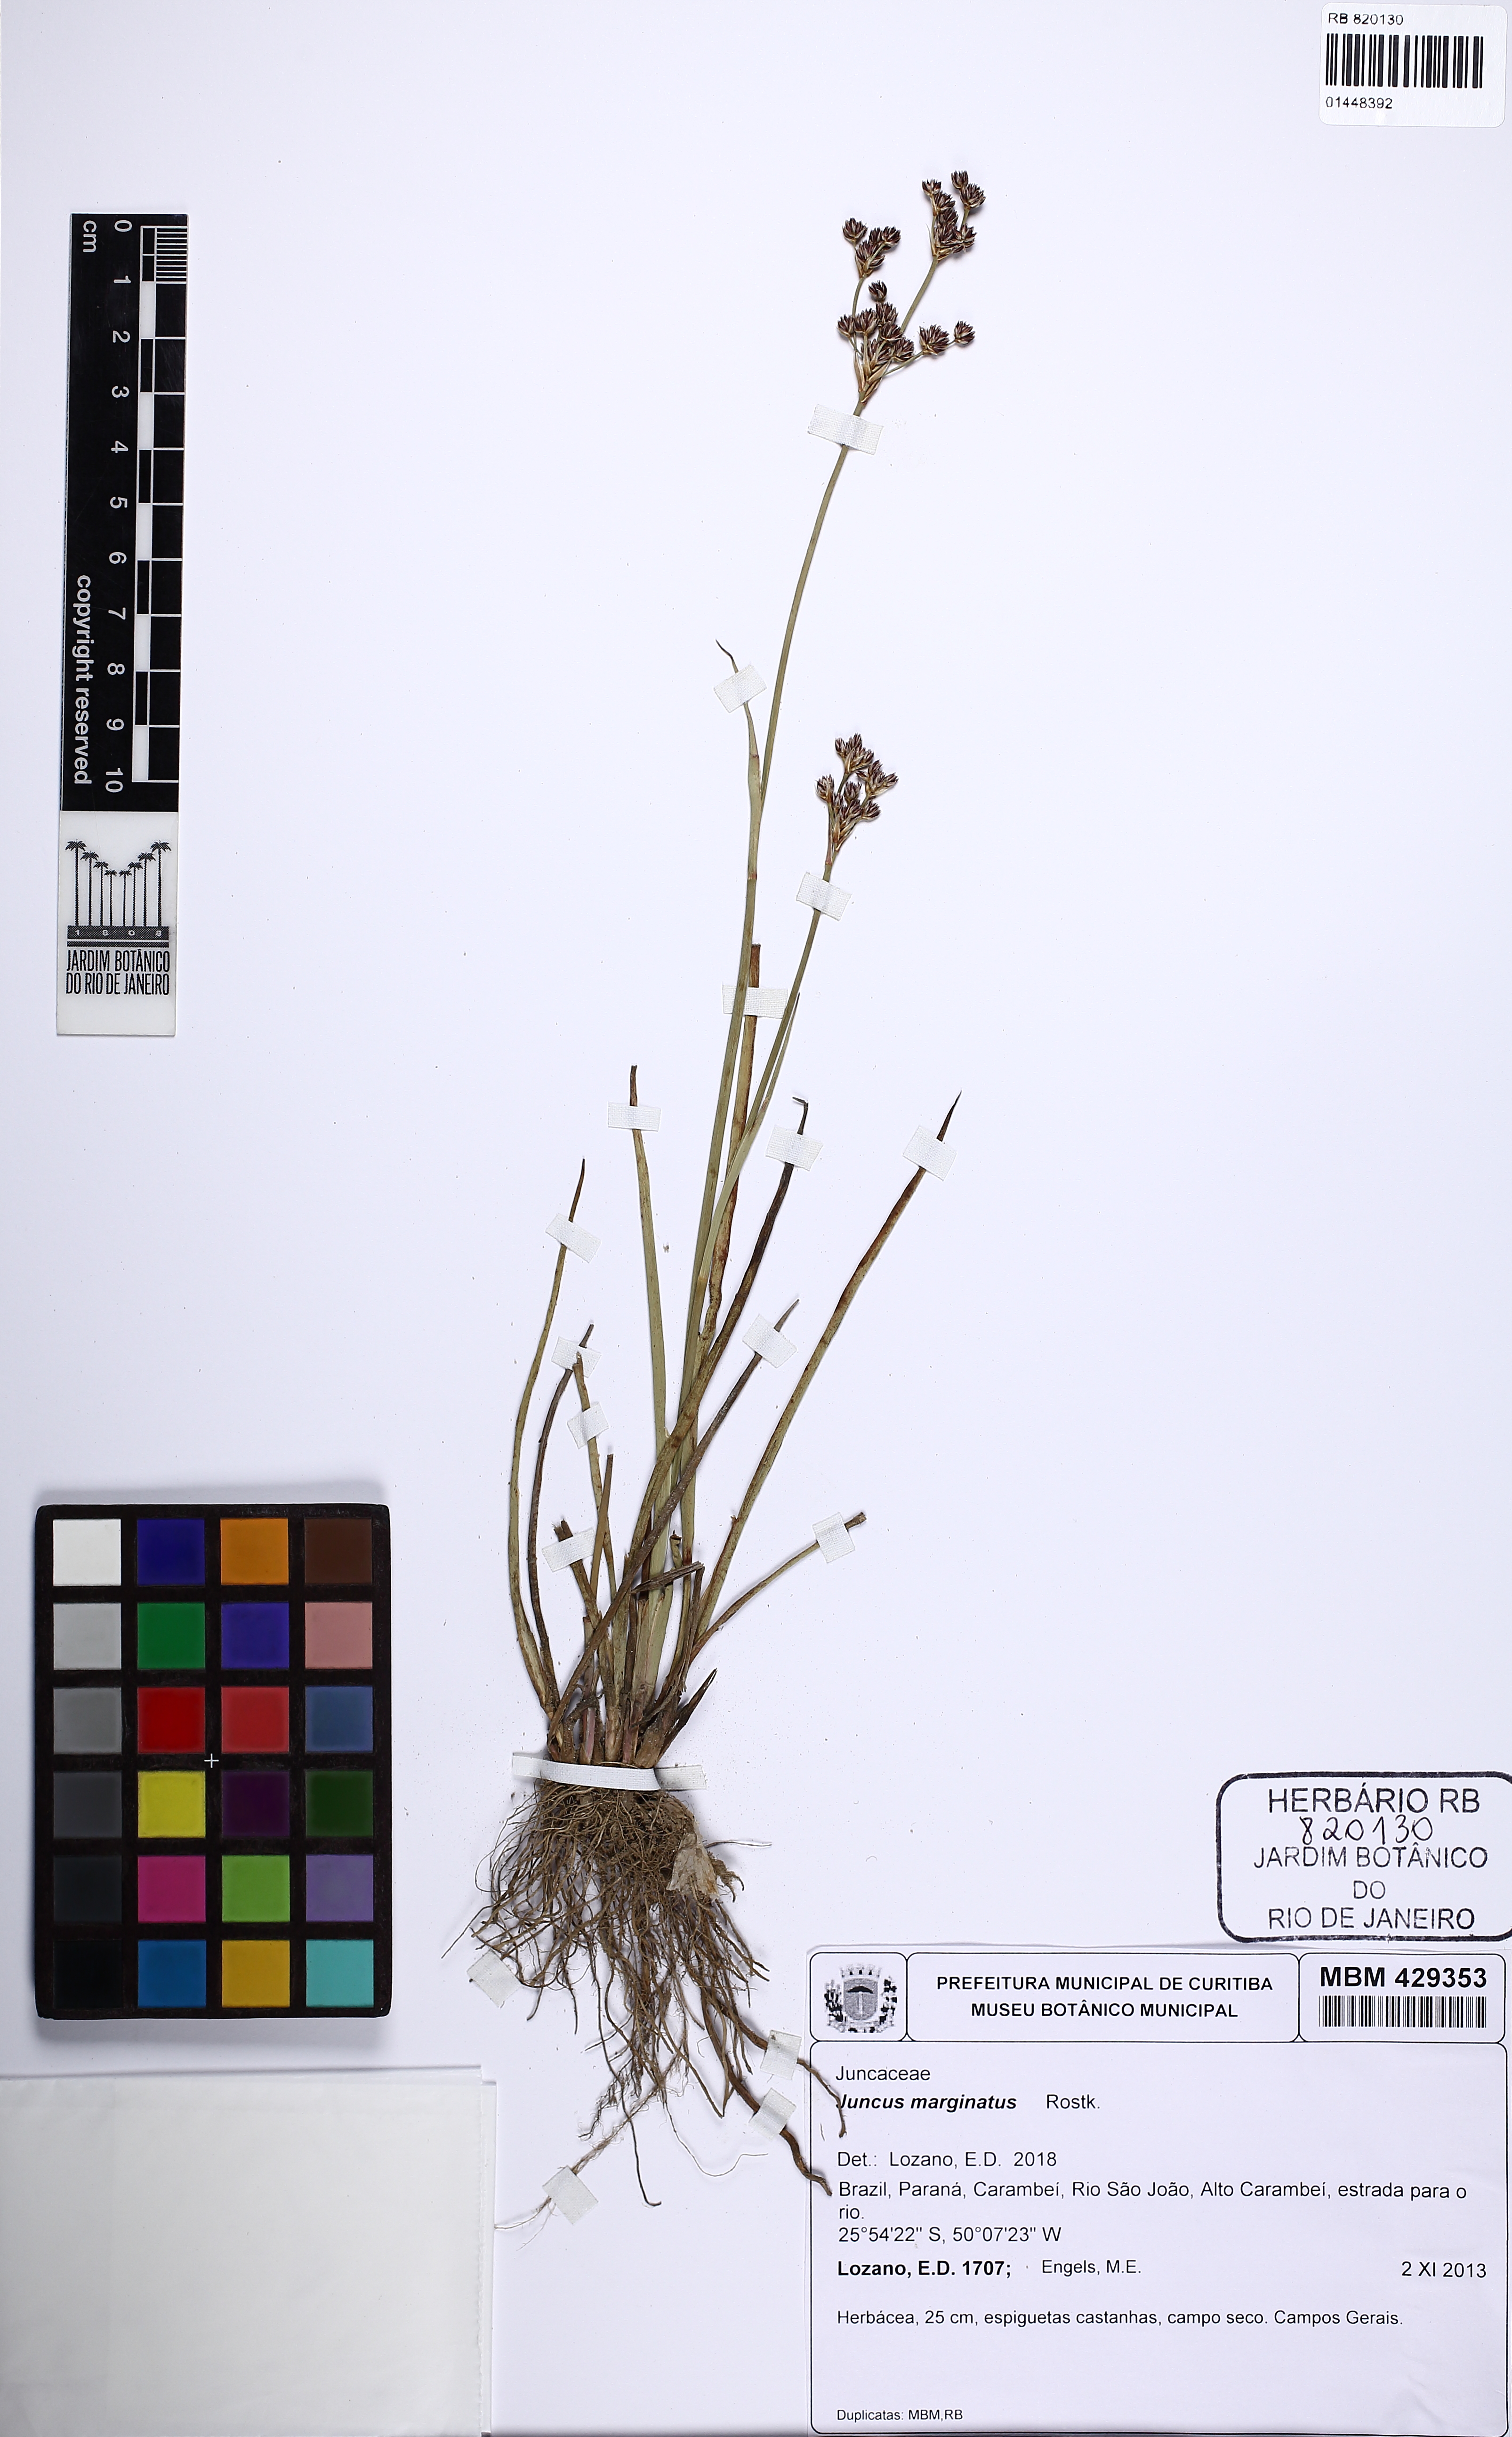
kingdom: Plantae
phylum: Tracheophyta
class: Liliopsida
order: Poales
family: Juncaceae
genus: Juncus
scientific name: Juncus marginatus
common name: Grass-leaf rush
